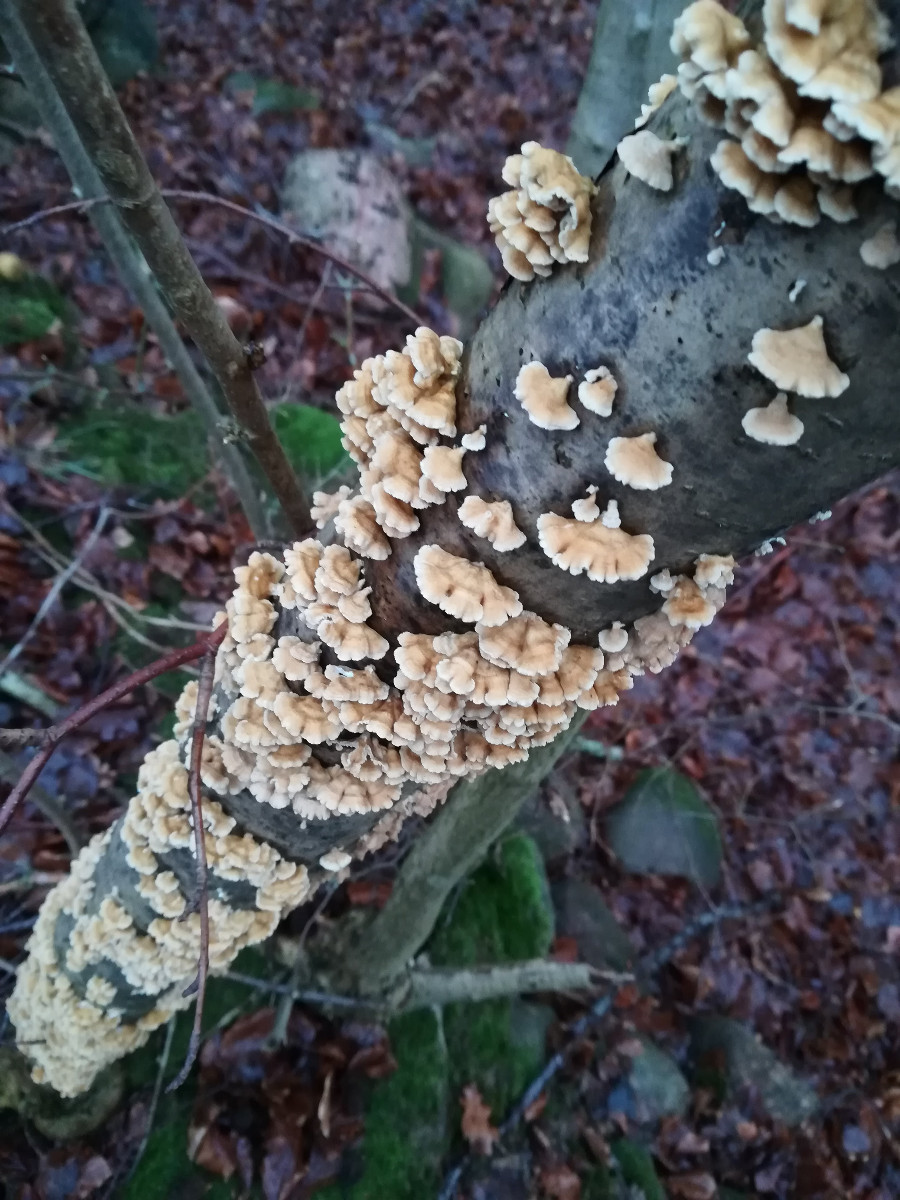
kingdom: Fungi
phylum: Basidiomycota
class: Agaricomycetes
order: Amylocorticiales
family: Amylocorticiaceae
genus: Plicaturopsis
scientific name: Plicaturopsis crispa
